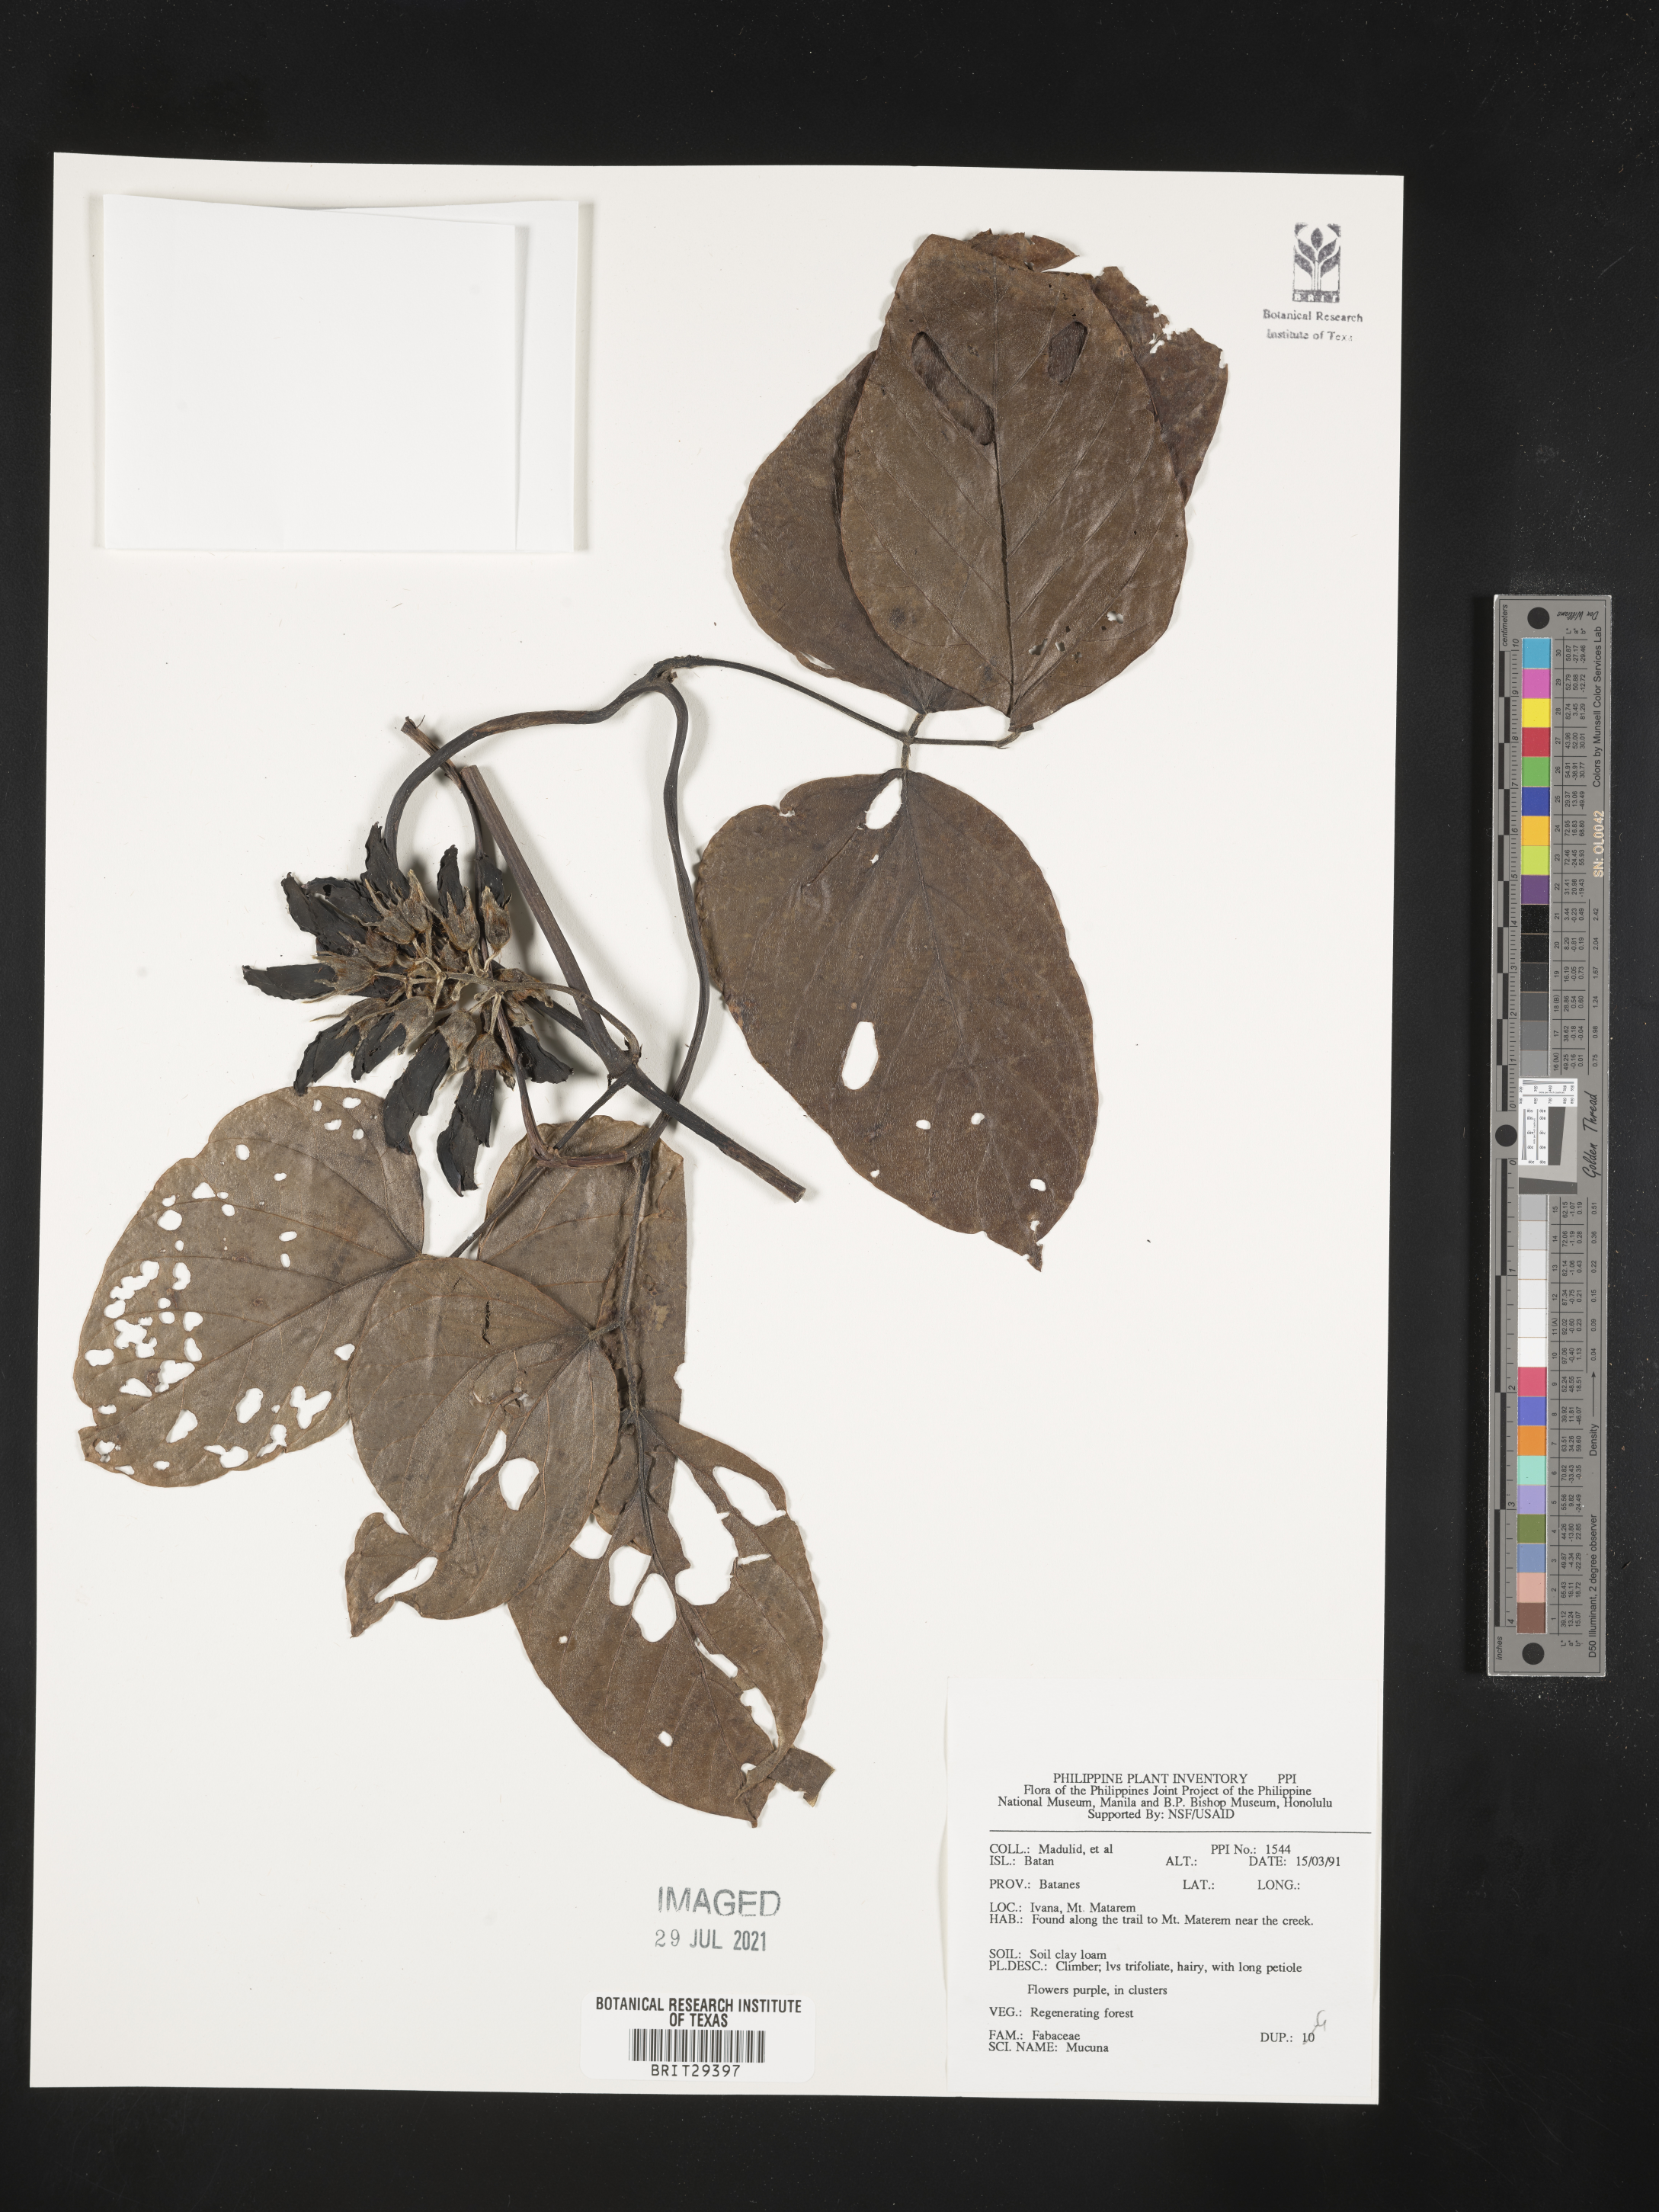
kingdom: Plantae
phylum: Tracheophyta
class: Magnoliopsida
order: Fabales
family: Fabaceae
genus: Mucuna
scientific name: Mucuna
